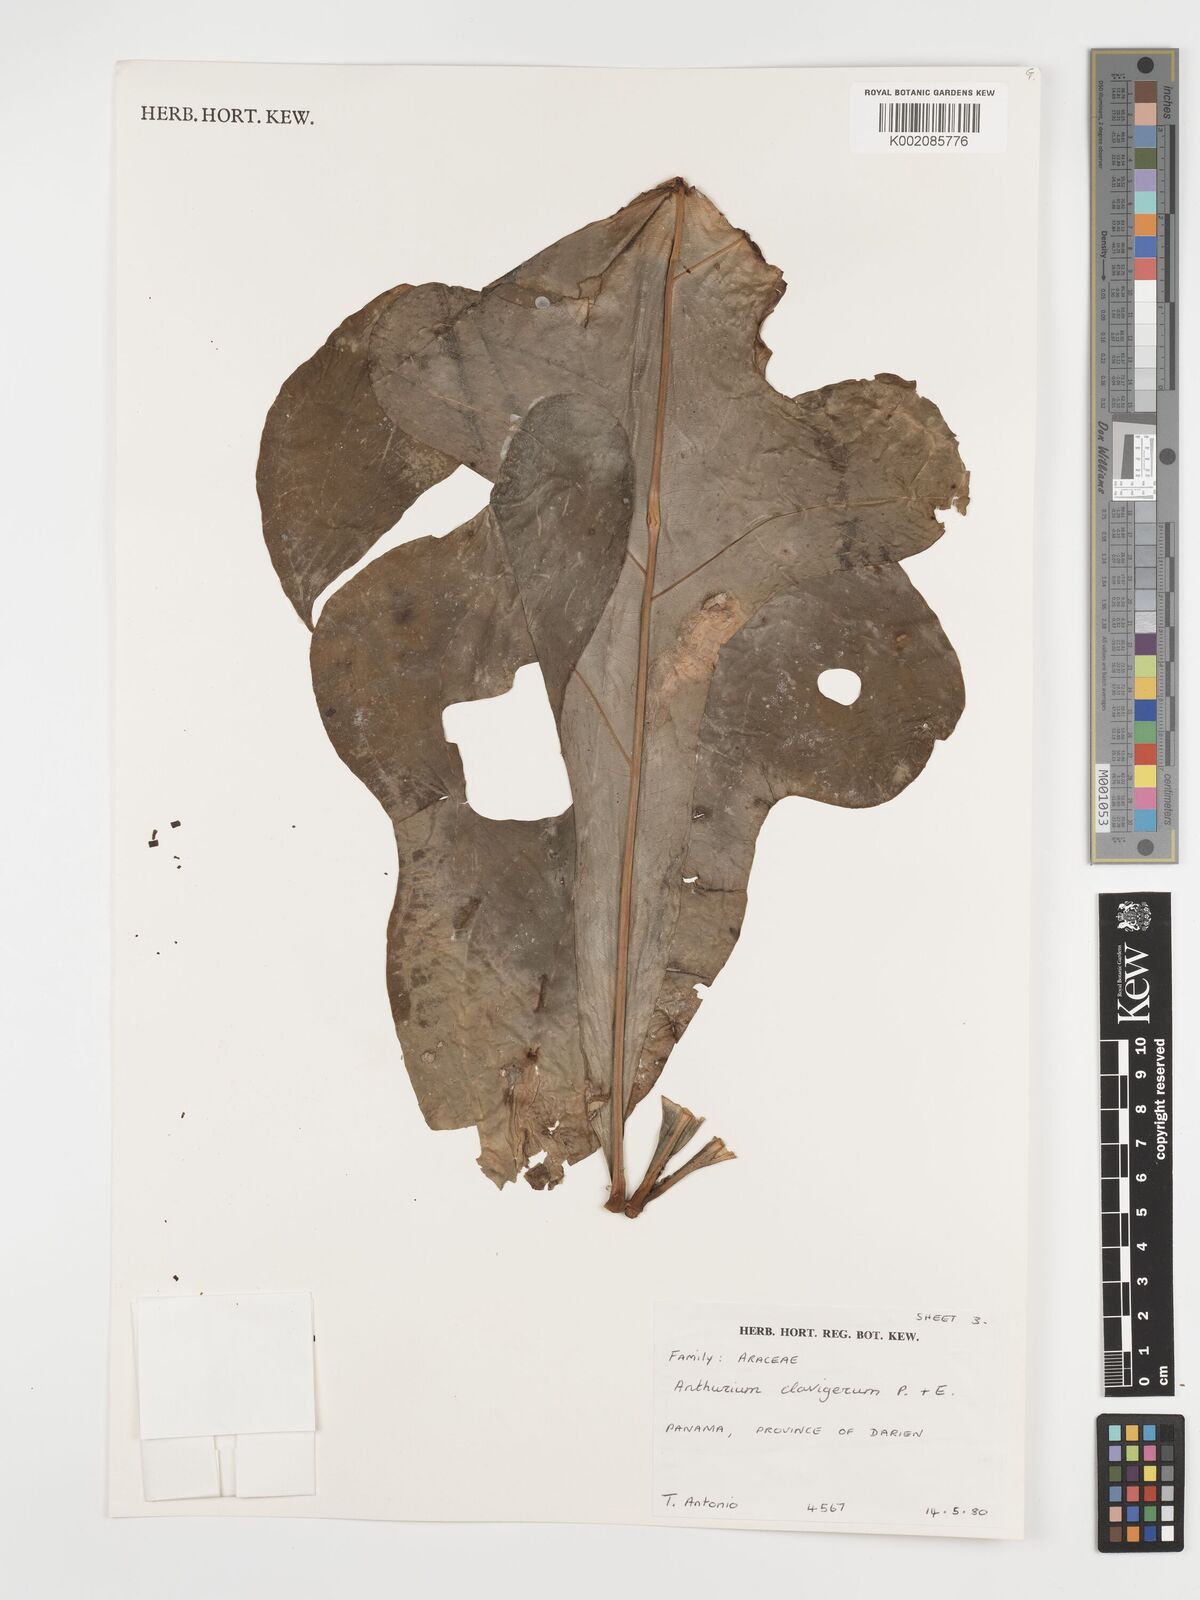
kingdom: Plantae
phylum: Tracheophyta
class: Liliopsida
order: Alismatales
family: Araceae
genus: Anthurium
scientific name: Anthurium clavigerum
